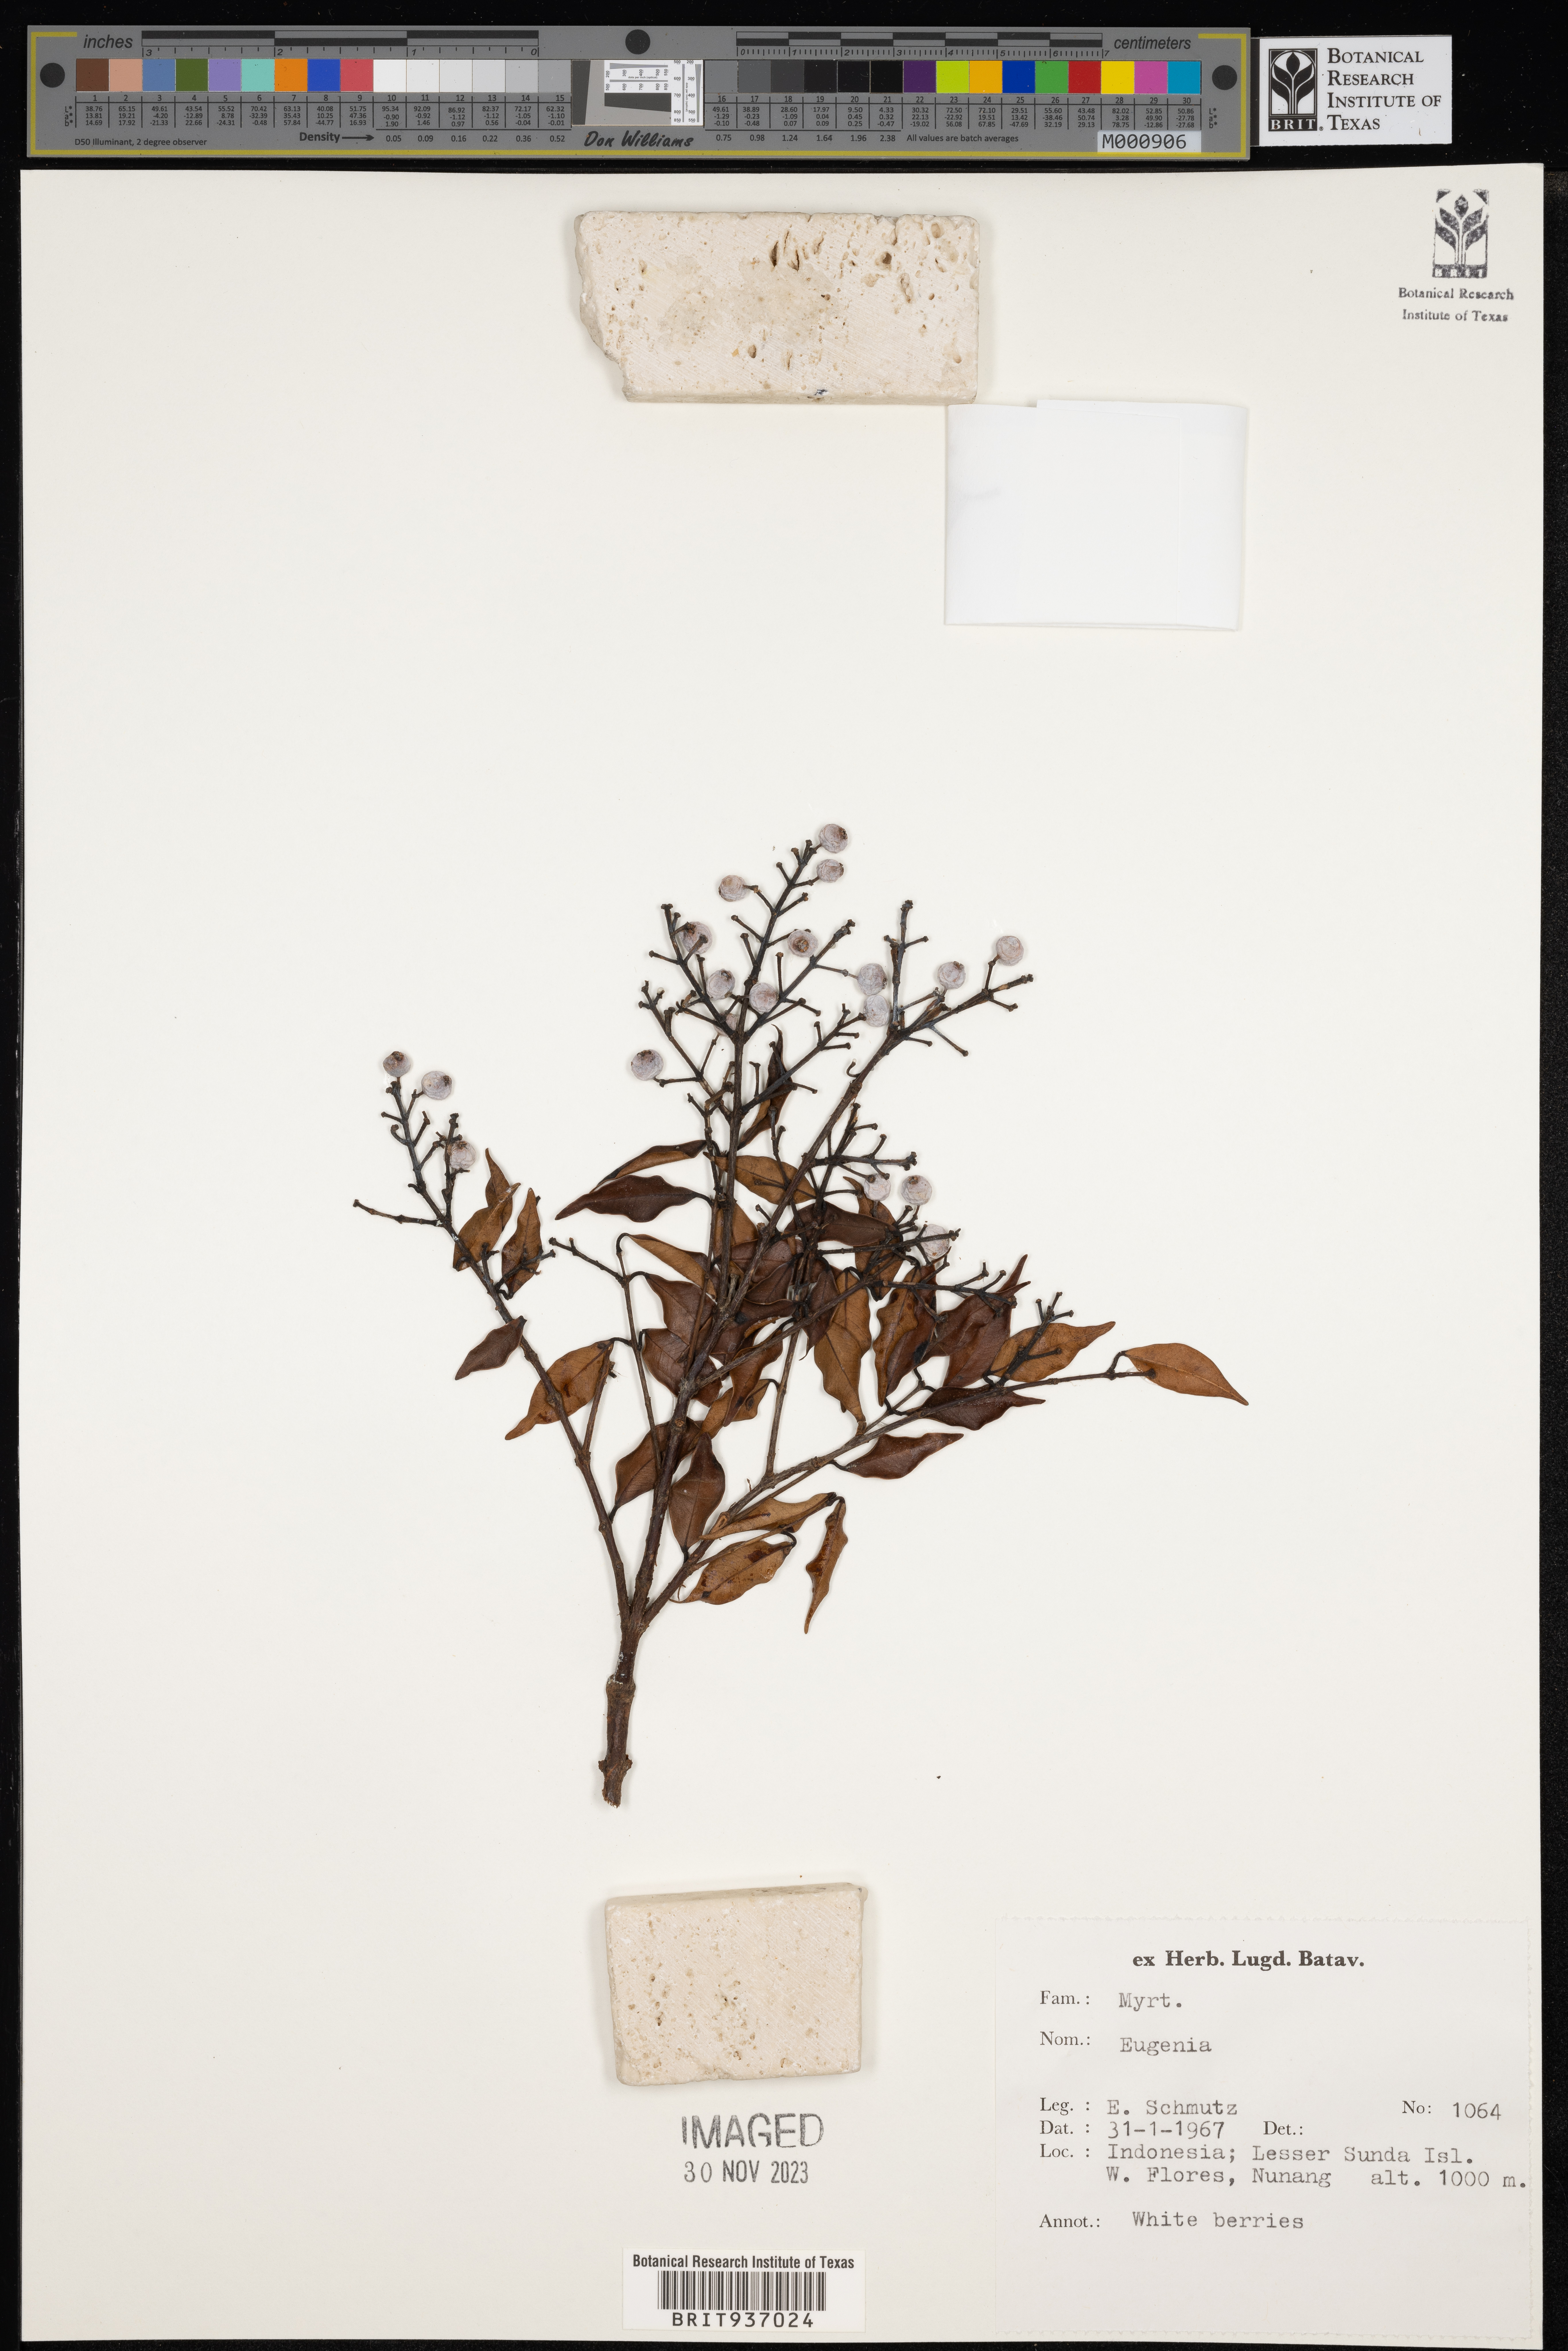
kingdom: Plantae
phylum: Tracheophyta
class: Magnoliopsida
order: Myrtales
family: Myrtaceae
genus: Eugenia
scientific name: Eugenia
